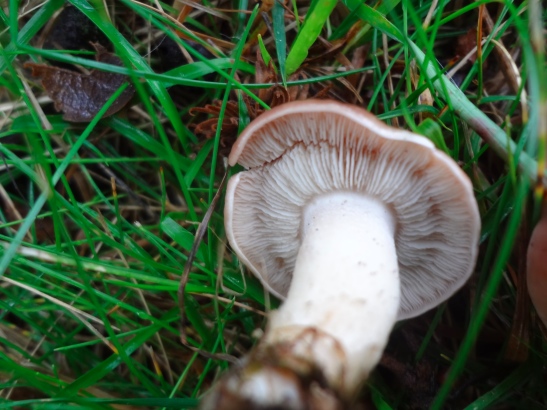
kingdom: Fungi
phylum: Basidiomycota
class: Agaricomycetes
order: Agaricales
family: Lyophyllaceae
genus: Calocybe
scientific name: Calocybe carnea
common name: rosa fagerhat
